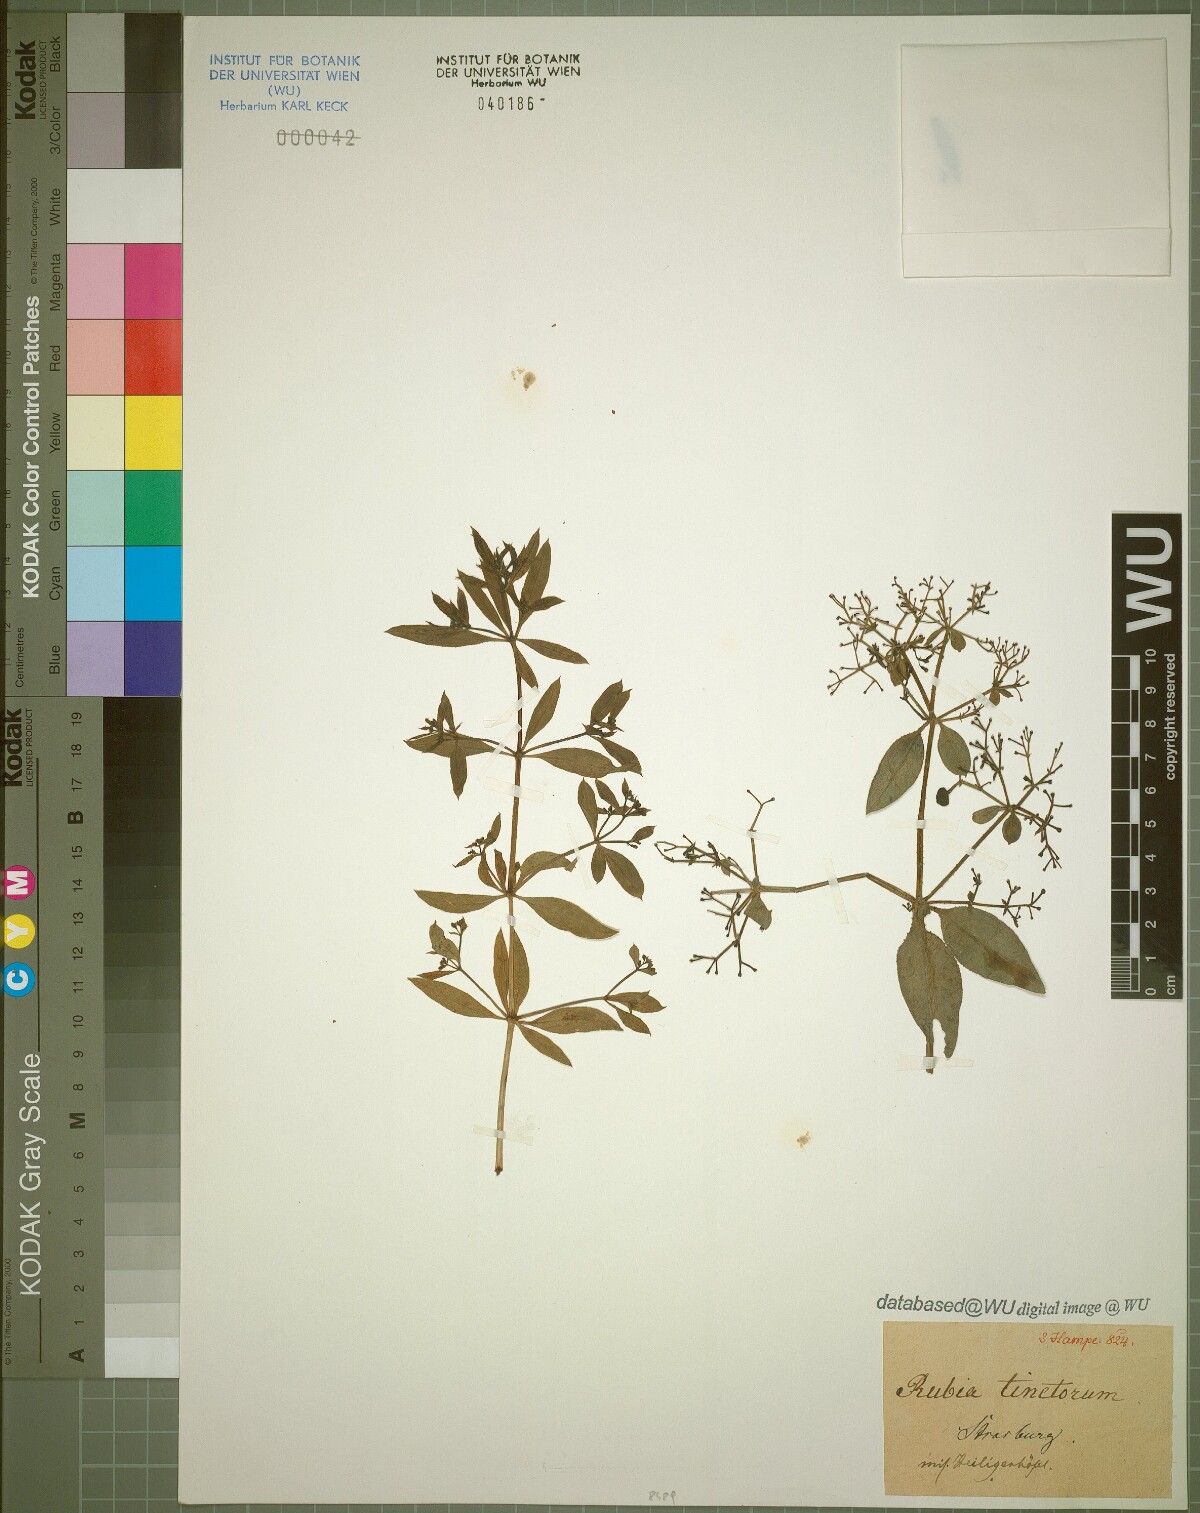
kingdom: Plantae
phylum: Tracheophyta
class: Magnoliopsida
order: Gentianales
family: Rubiaceae
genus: Rubia
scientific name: Rubia tinctorum
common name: Dyer's madder
